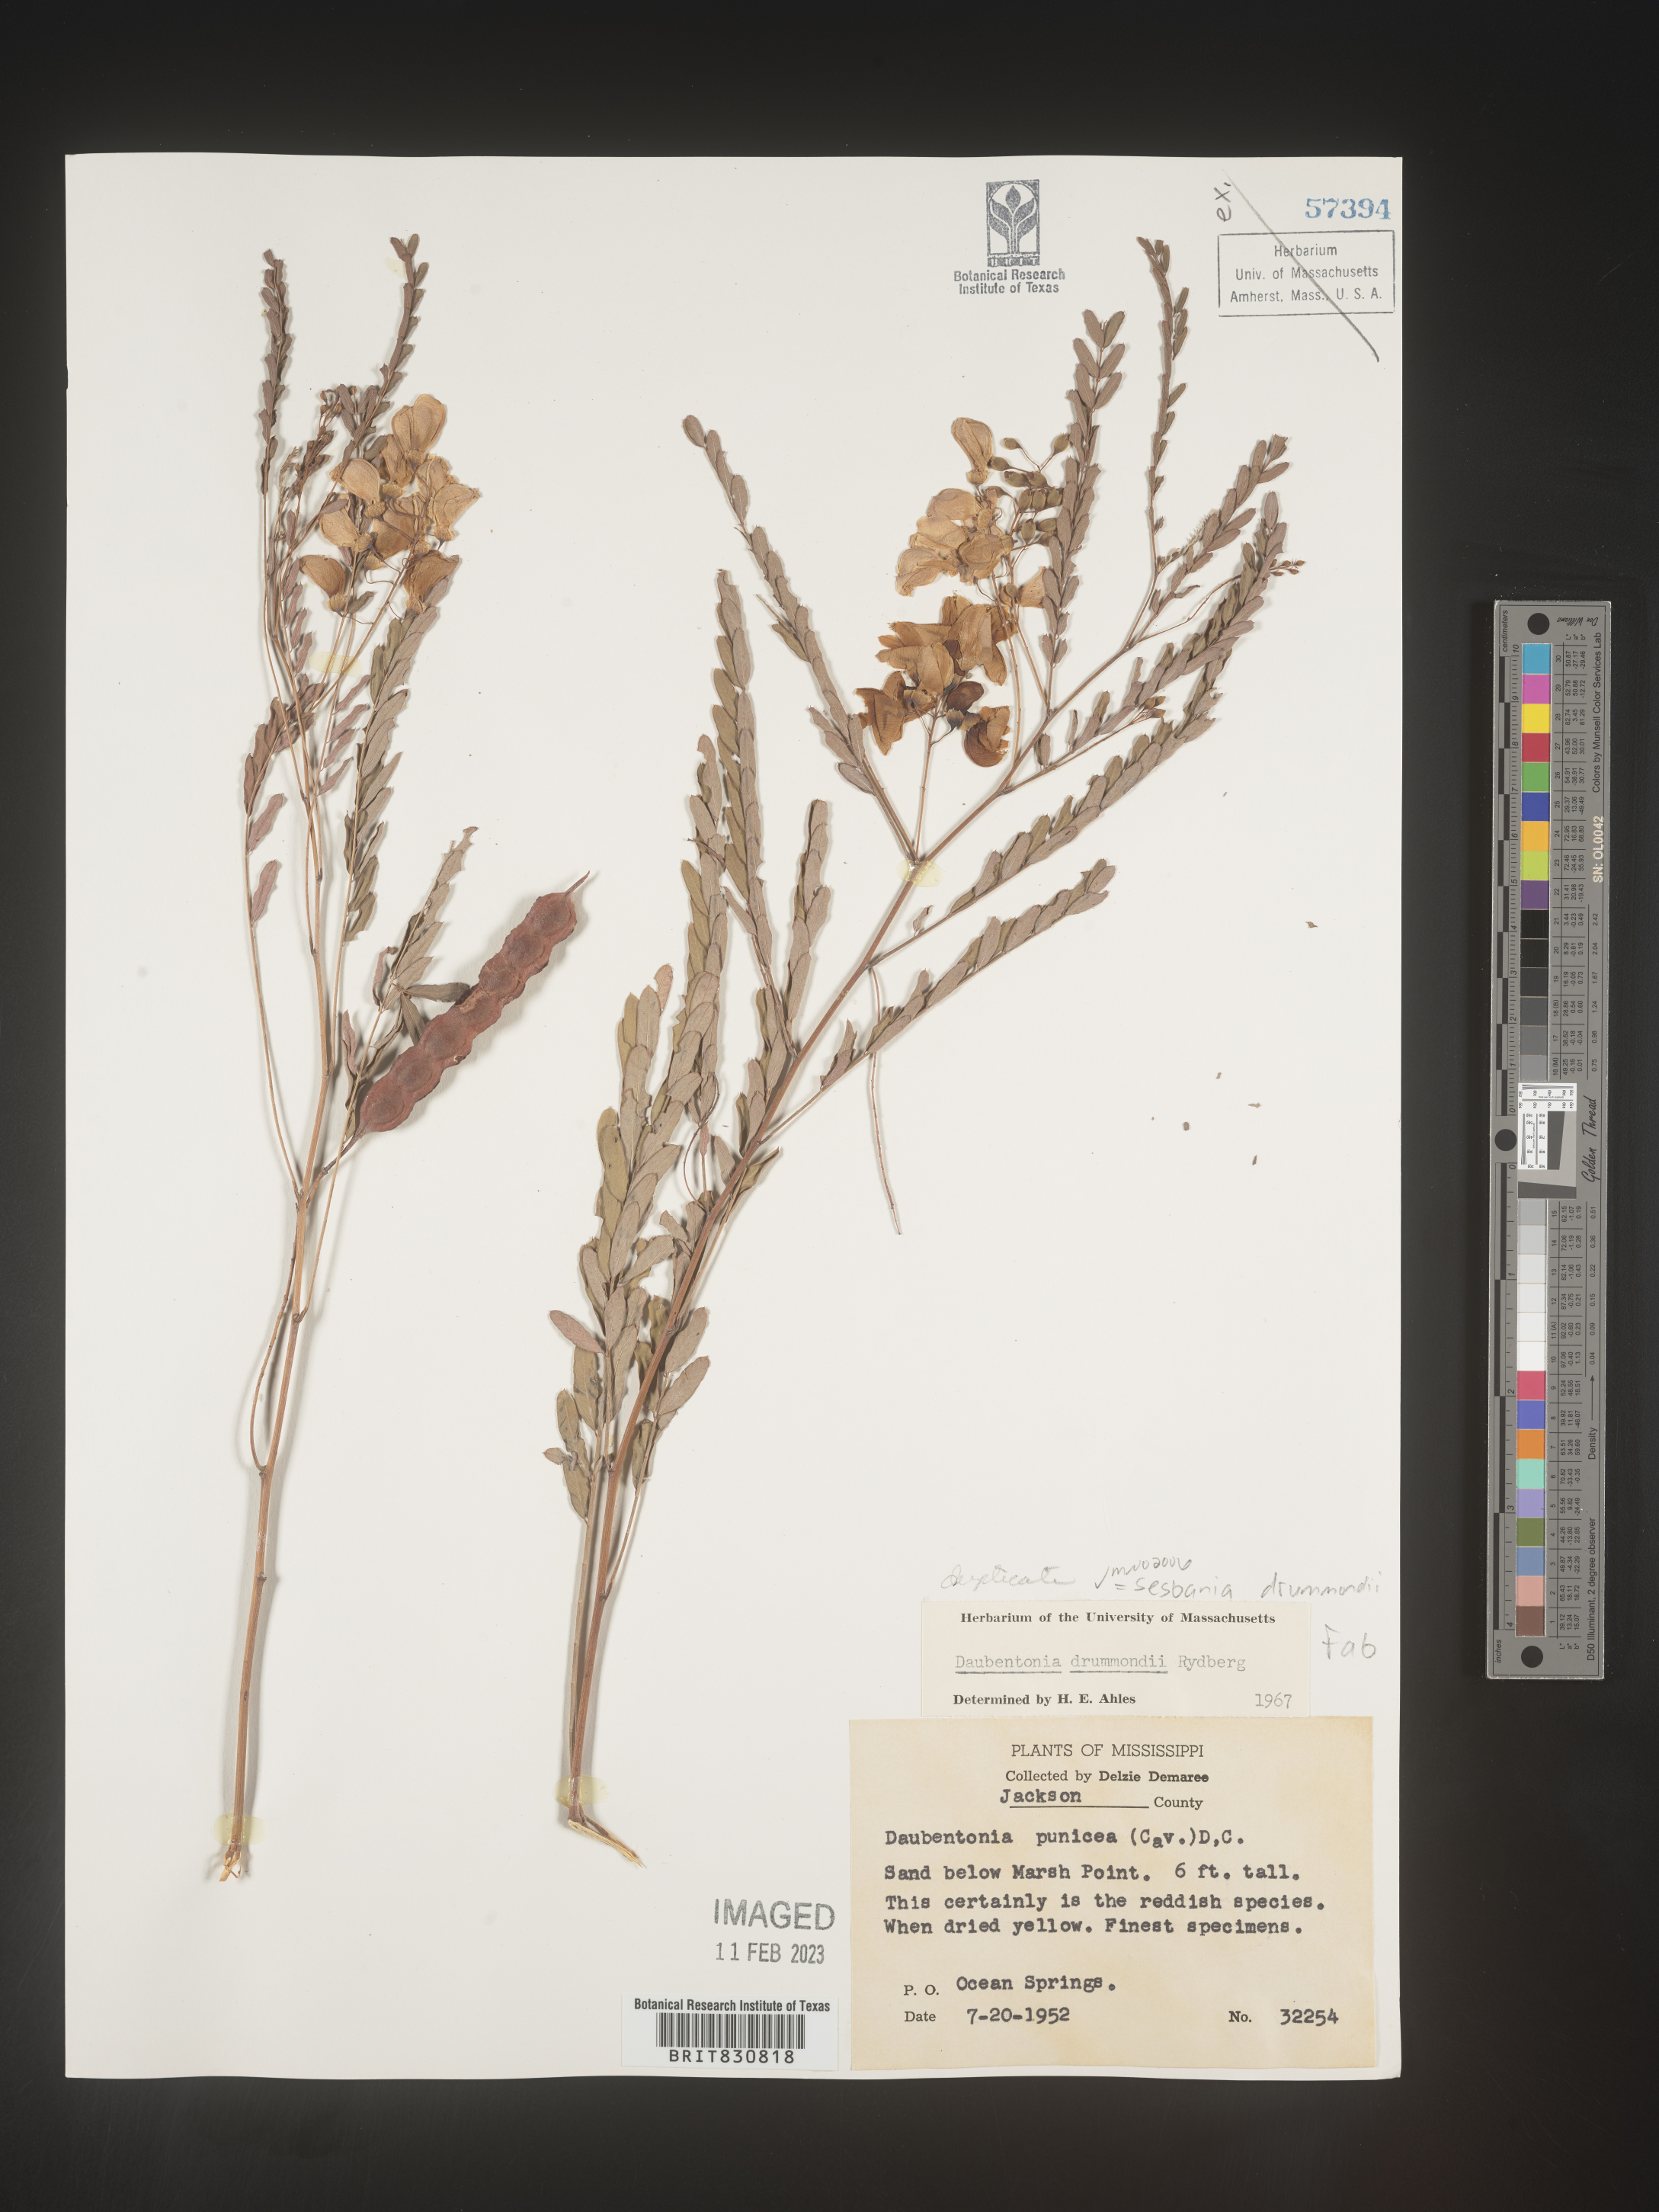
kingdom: Plantae
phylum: Tracheophyta
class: Magnoliopsida
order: Fabales
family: Fabaceae
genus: Sesbania
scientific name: Sesbania drummondii
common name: Poison-bean
